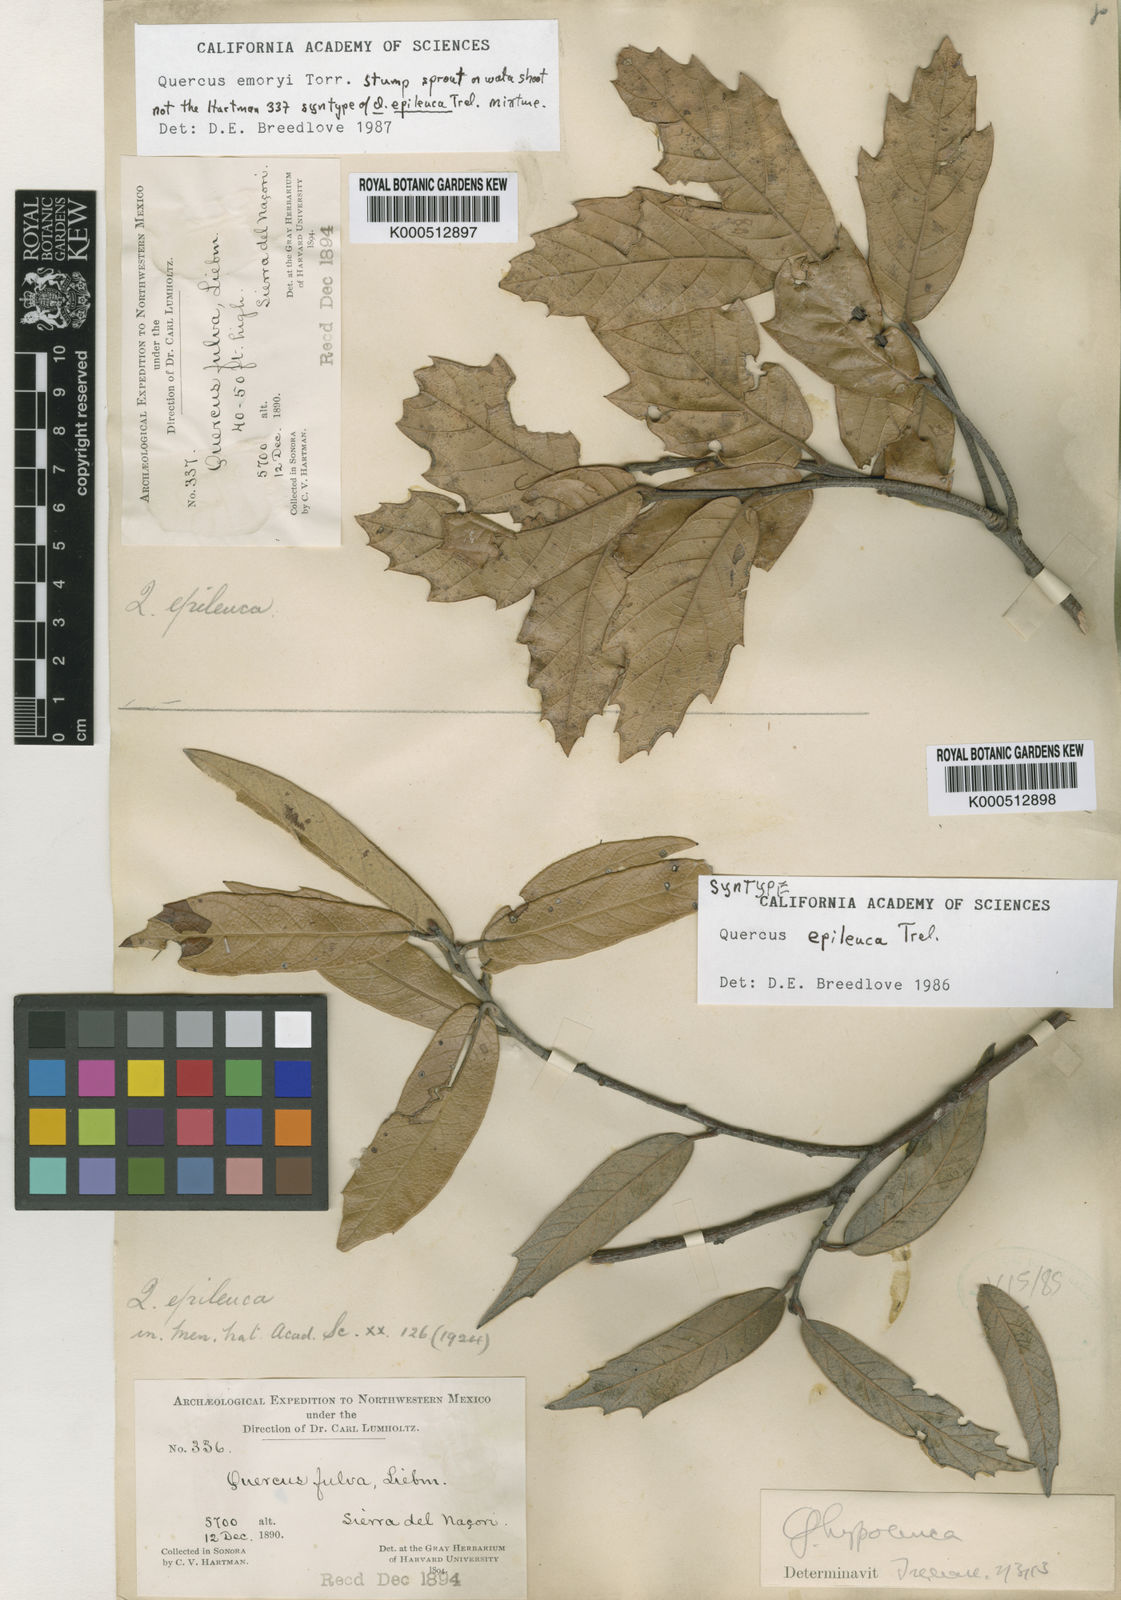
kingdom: Plantae
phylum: Tracheophyta
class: Magnoliopsida
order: Fagales
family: Fagaceae
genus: Quercus
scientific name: Quercus sideroxyla
